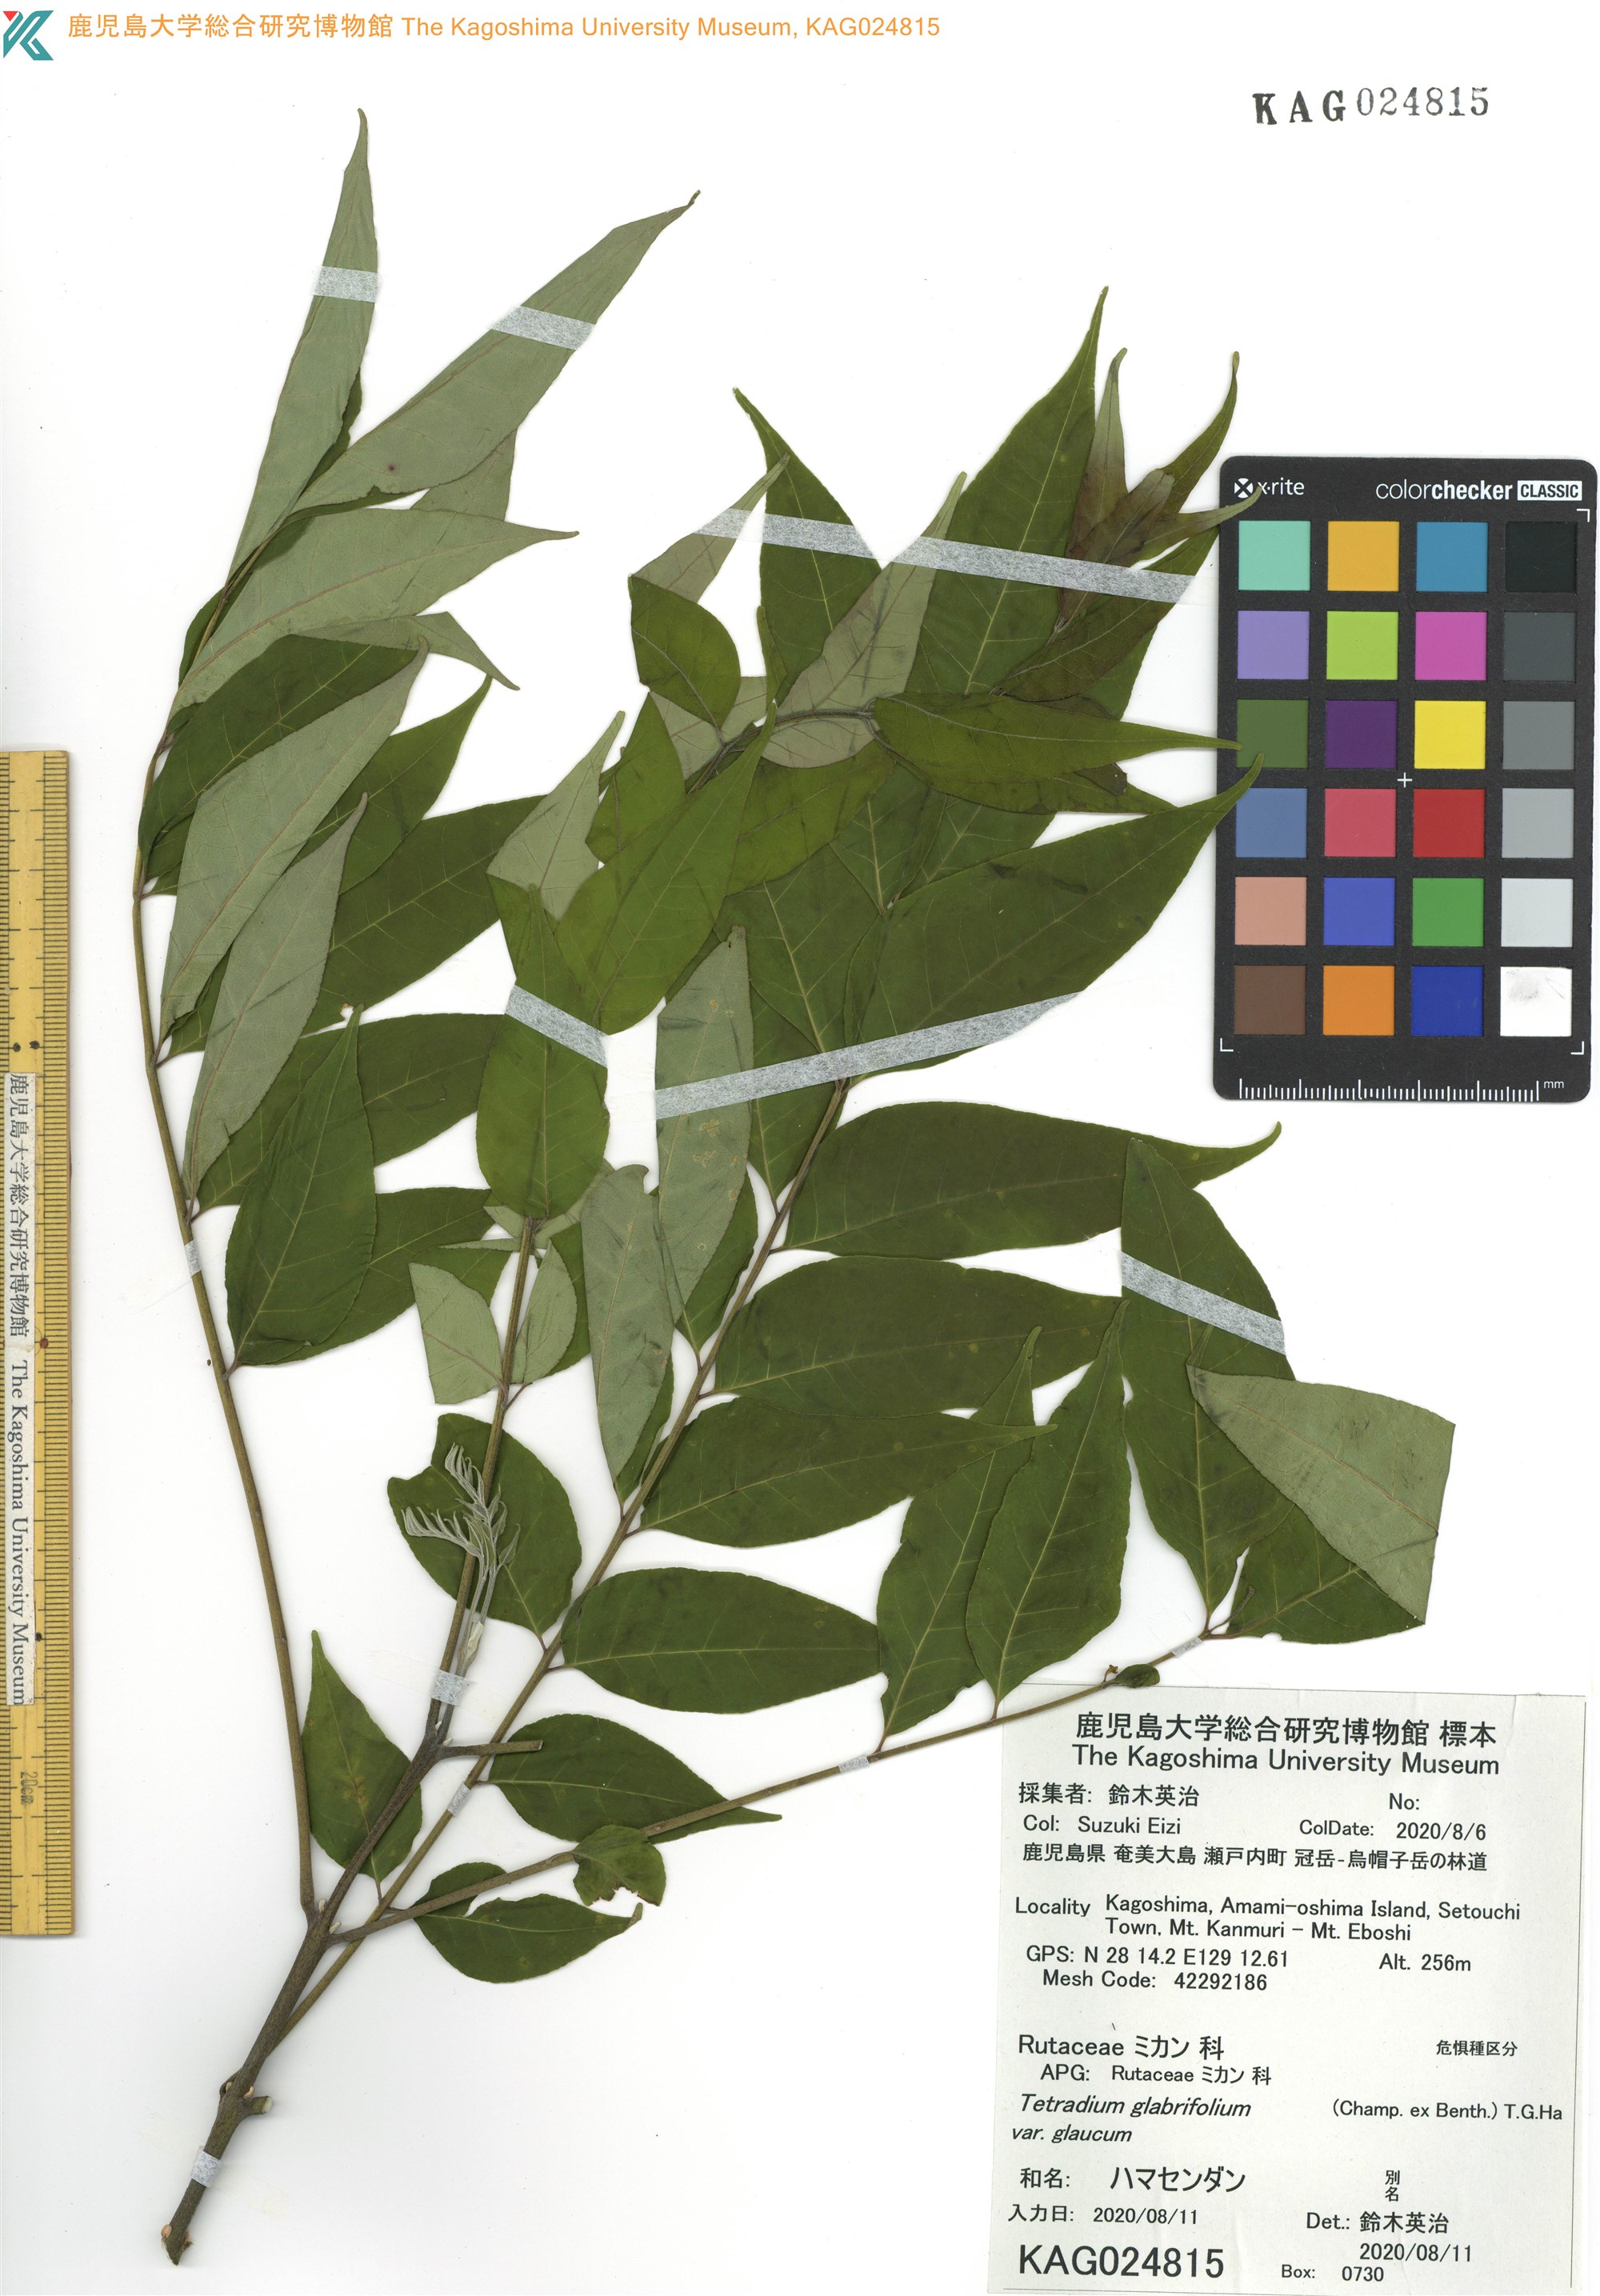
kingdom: Plantae
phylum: Tracheophyta
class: Magnoliopsida
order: Sapindales
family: Rutaceae
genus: Tetradium
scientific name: Tetradium glabrifolium
